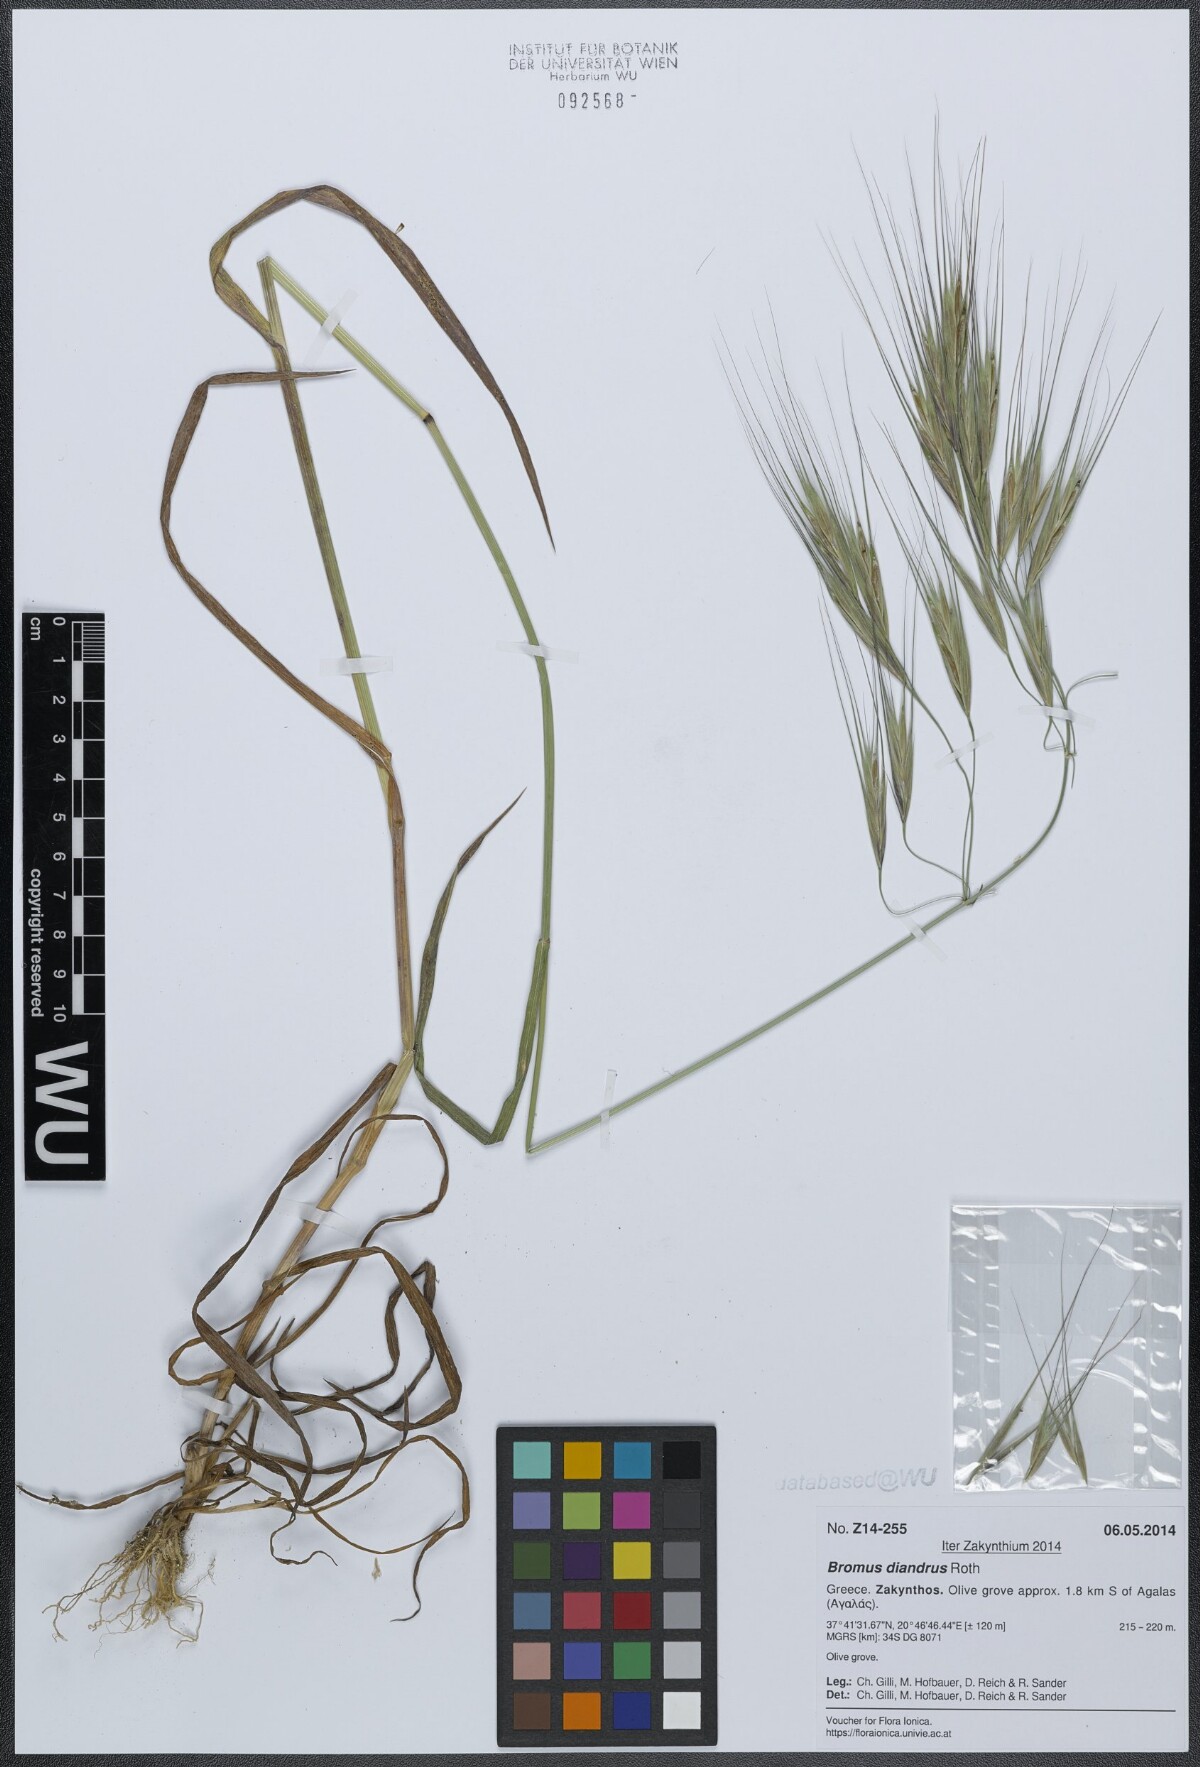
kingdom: Plantae
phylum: Tracheophyta
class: Liliopsida
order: Poales
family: Poaceae
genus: Bromus
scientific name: Bromus diandrus
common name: Ripgut brome
